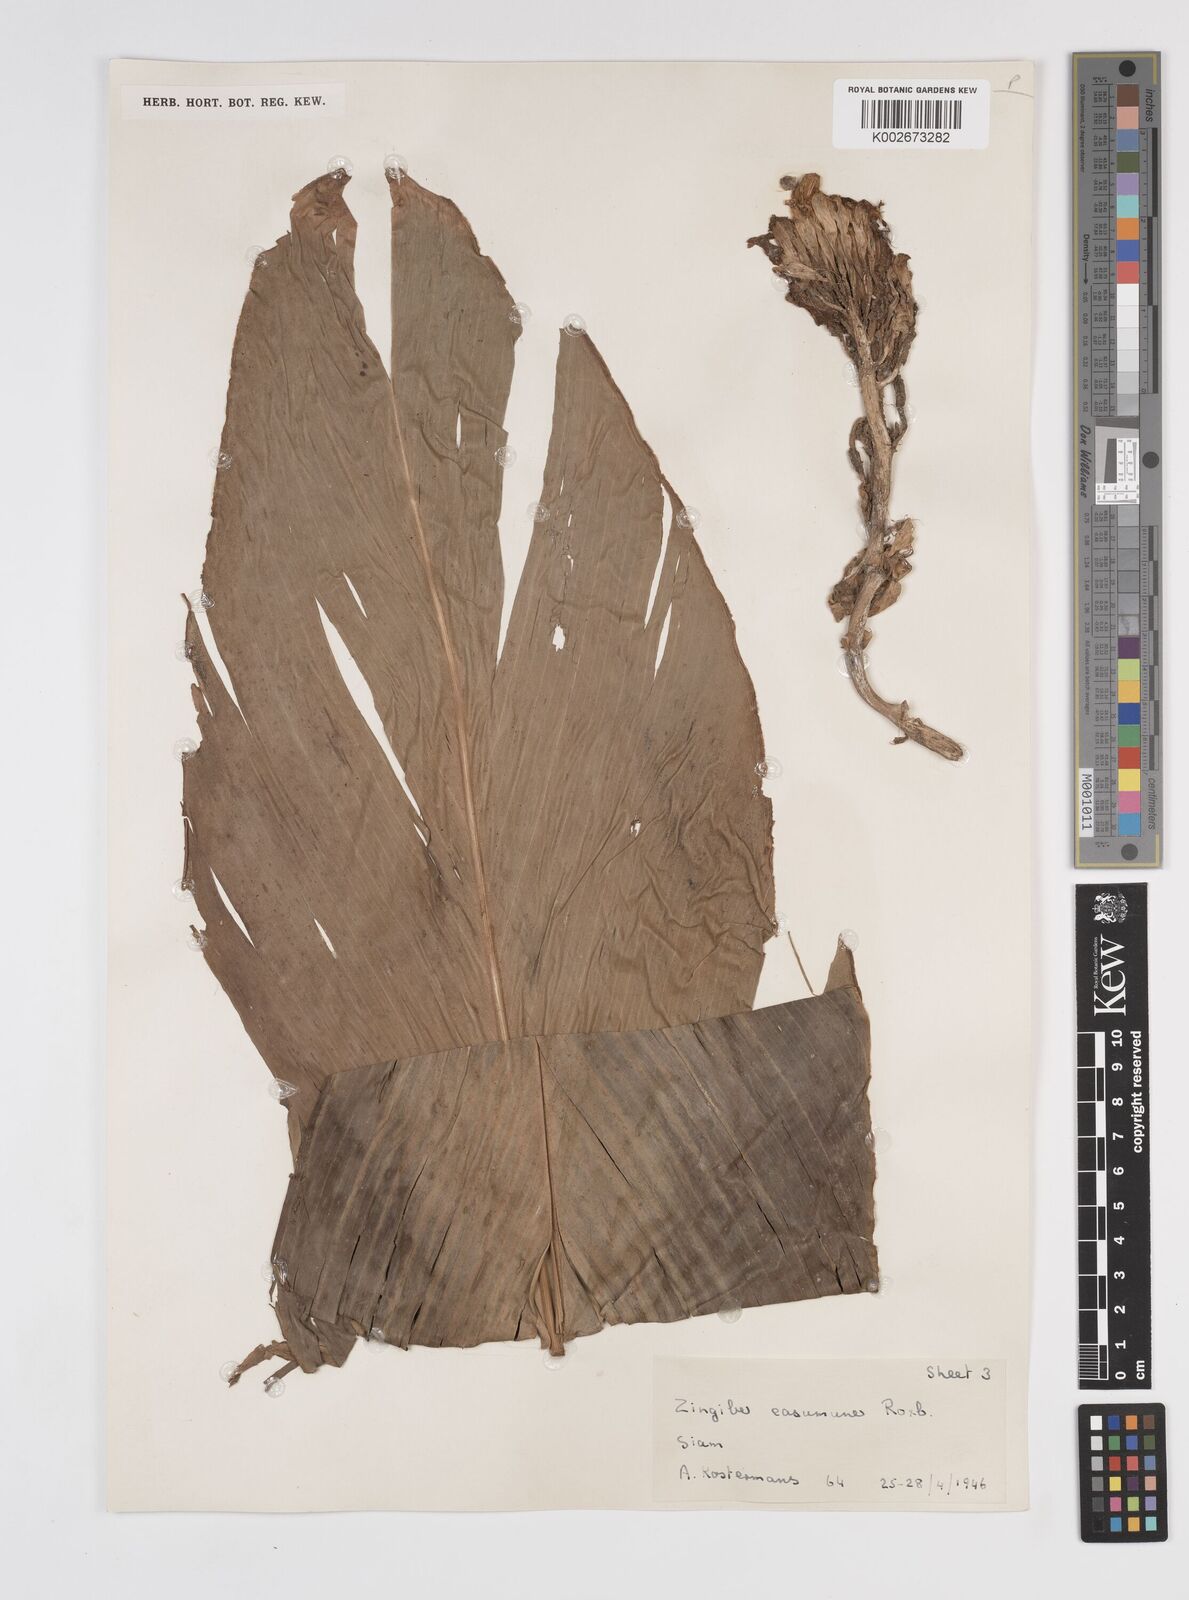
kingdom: Plantae
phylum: Tracheophyta
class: Liliopsida
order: Zingiberales
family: Zingiberaceae
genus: Amomum
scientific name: Amomum
